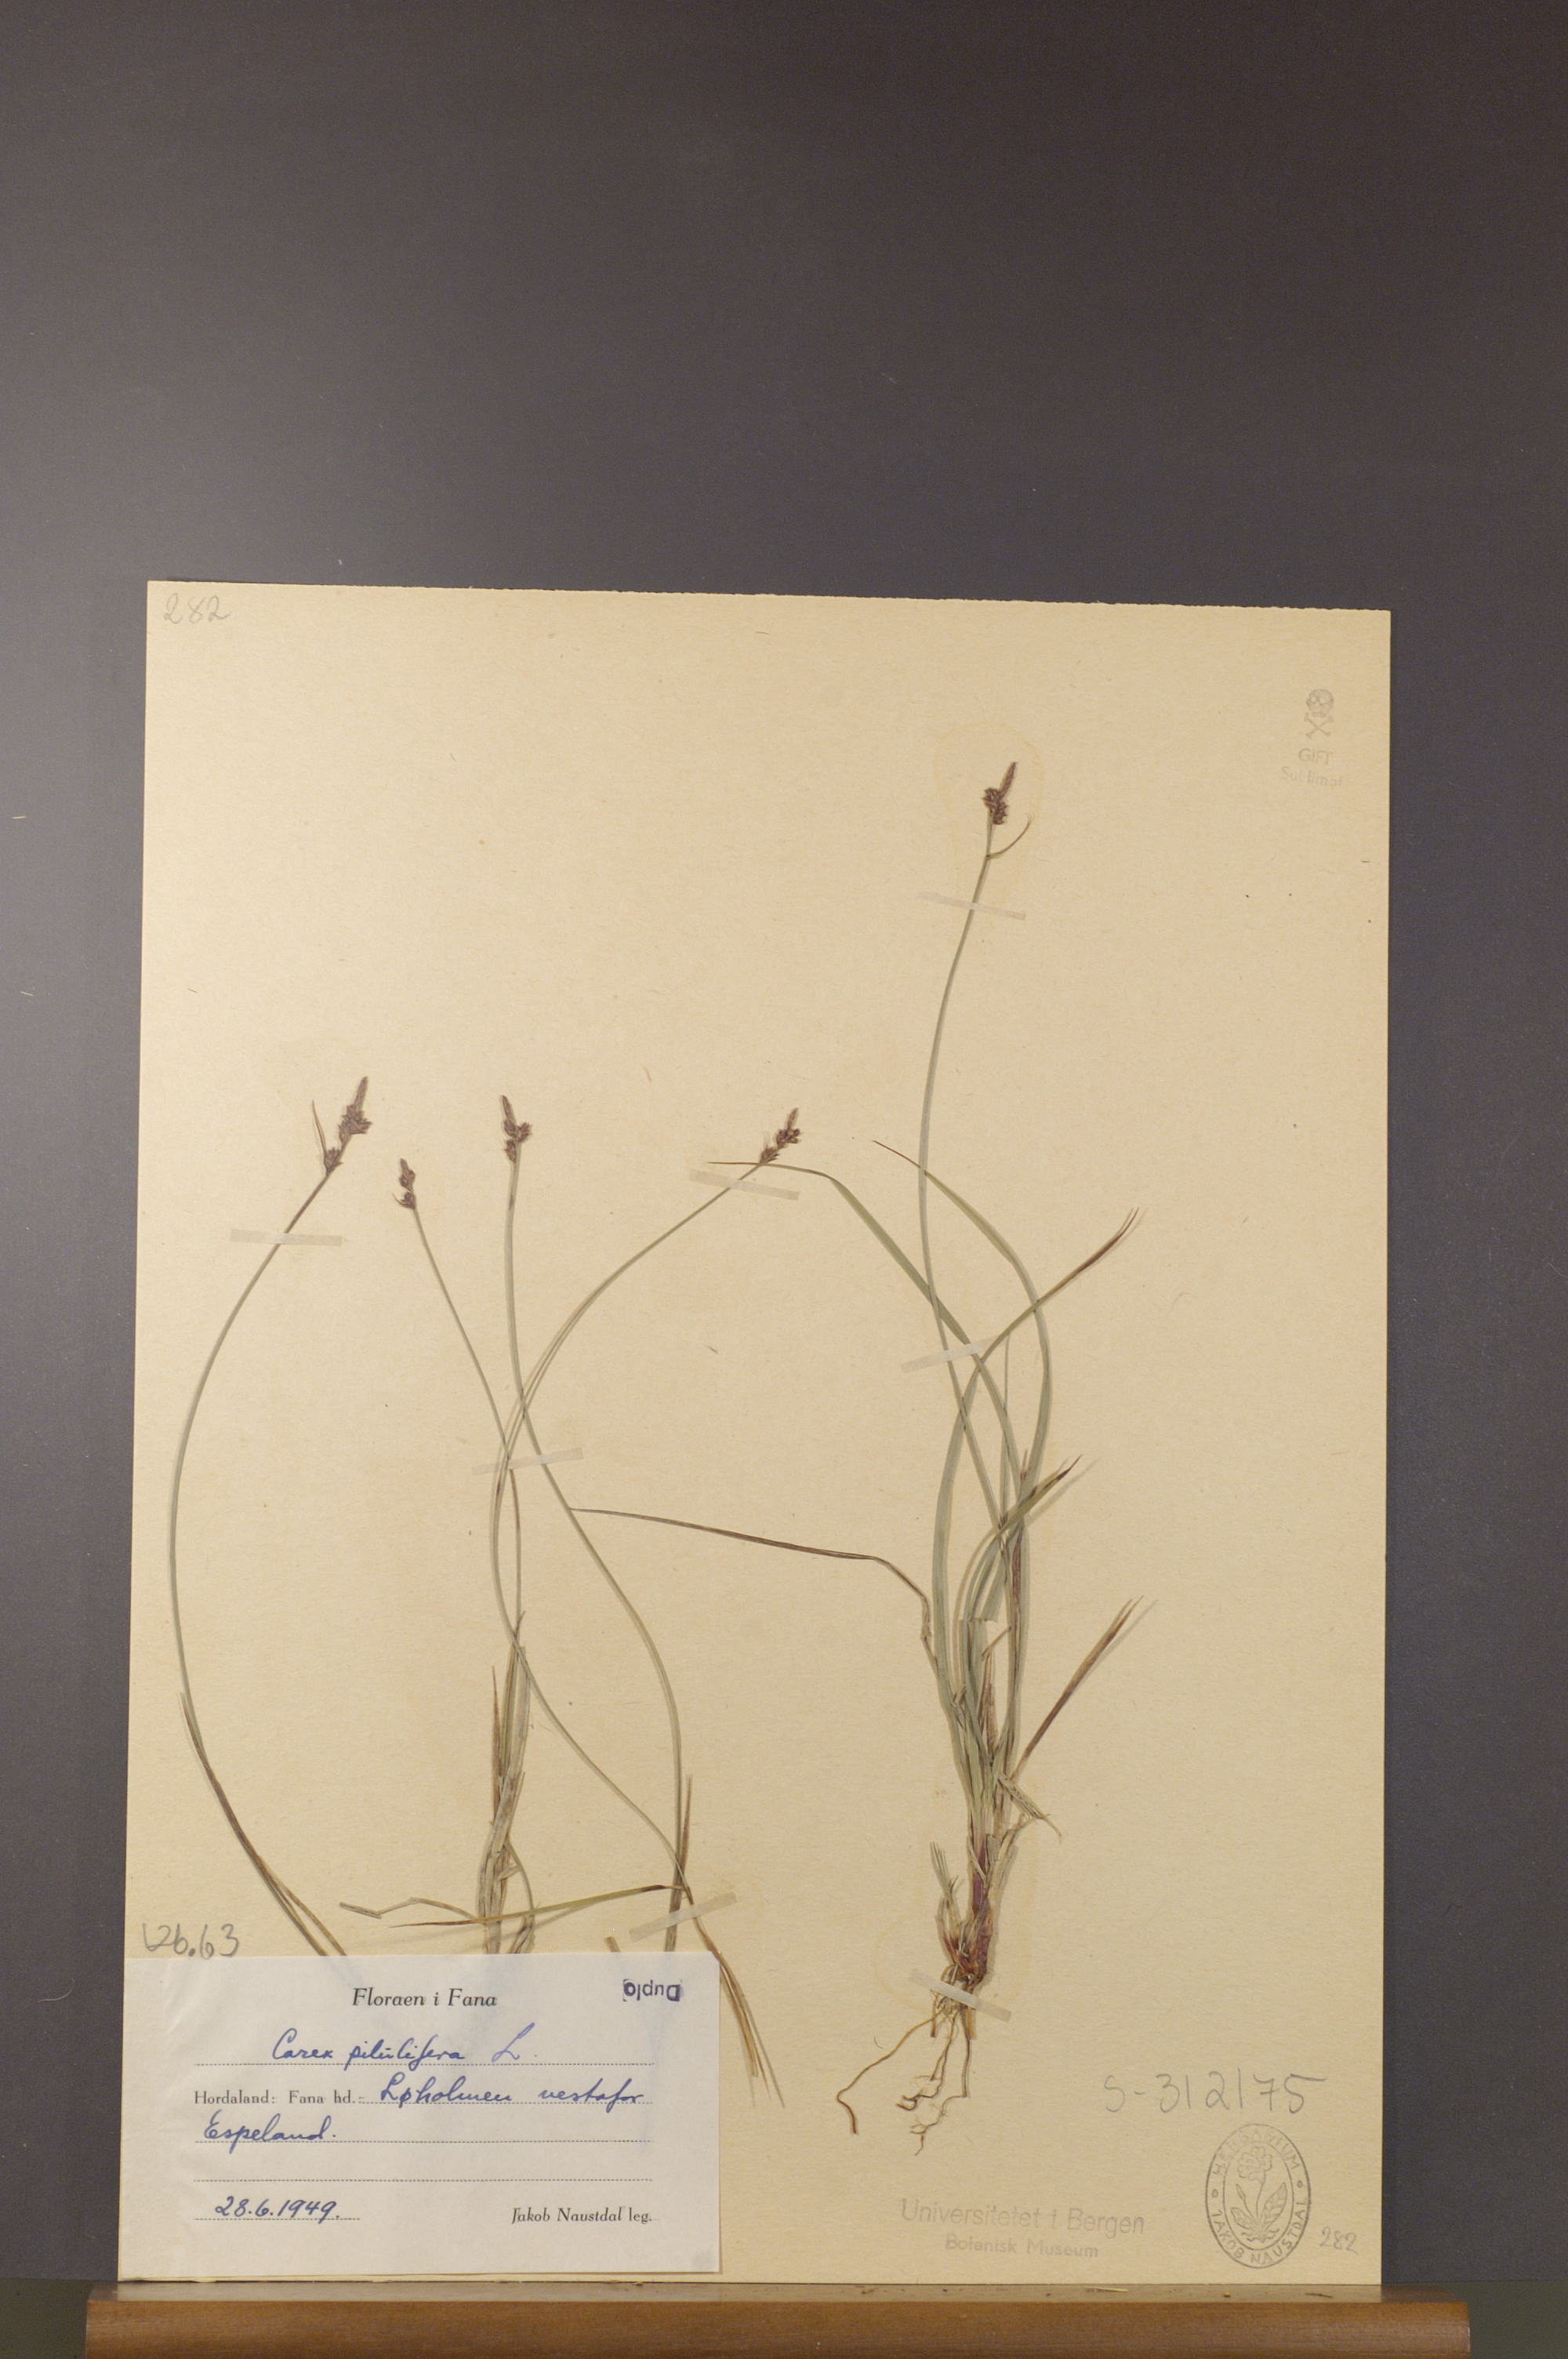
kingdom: Plantae
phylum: Tracheophyta
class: Liliopsida
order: Poales
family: Cyperaceae
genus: Carex
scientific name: Carex pilulifera
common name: Pill sedge
